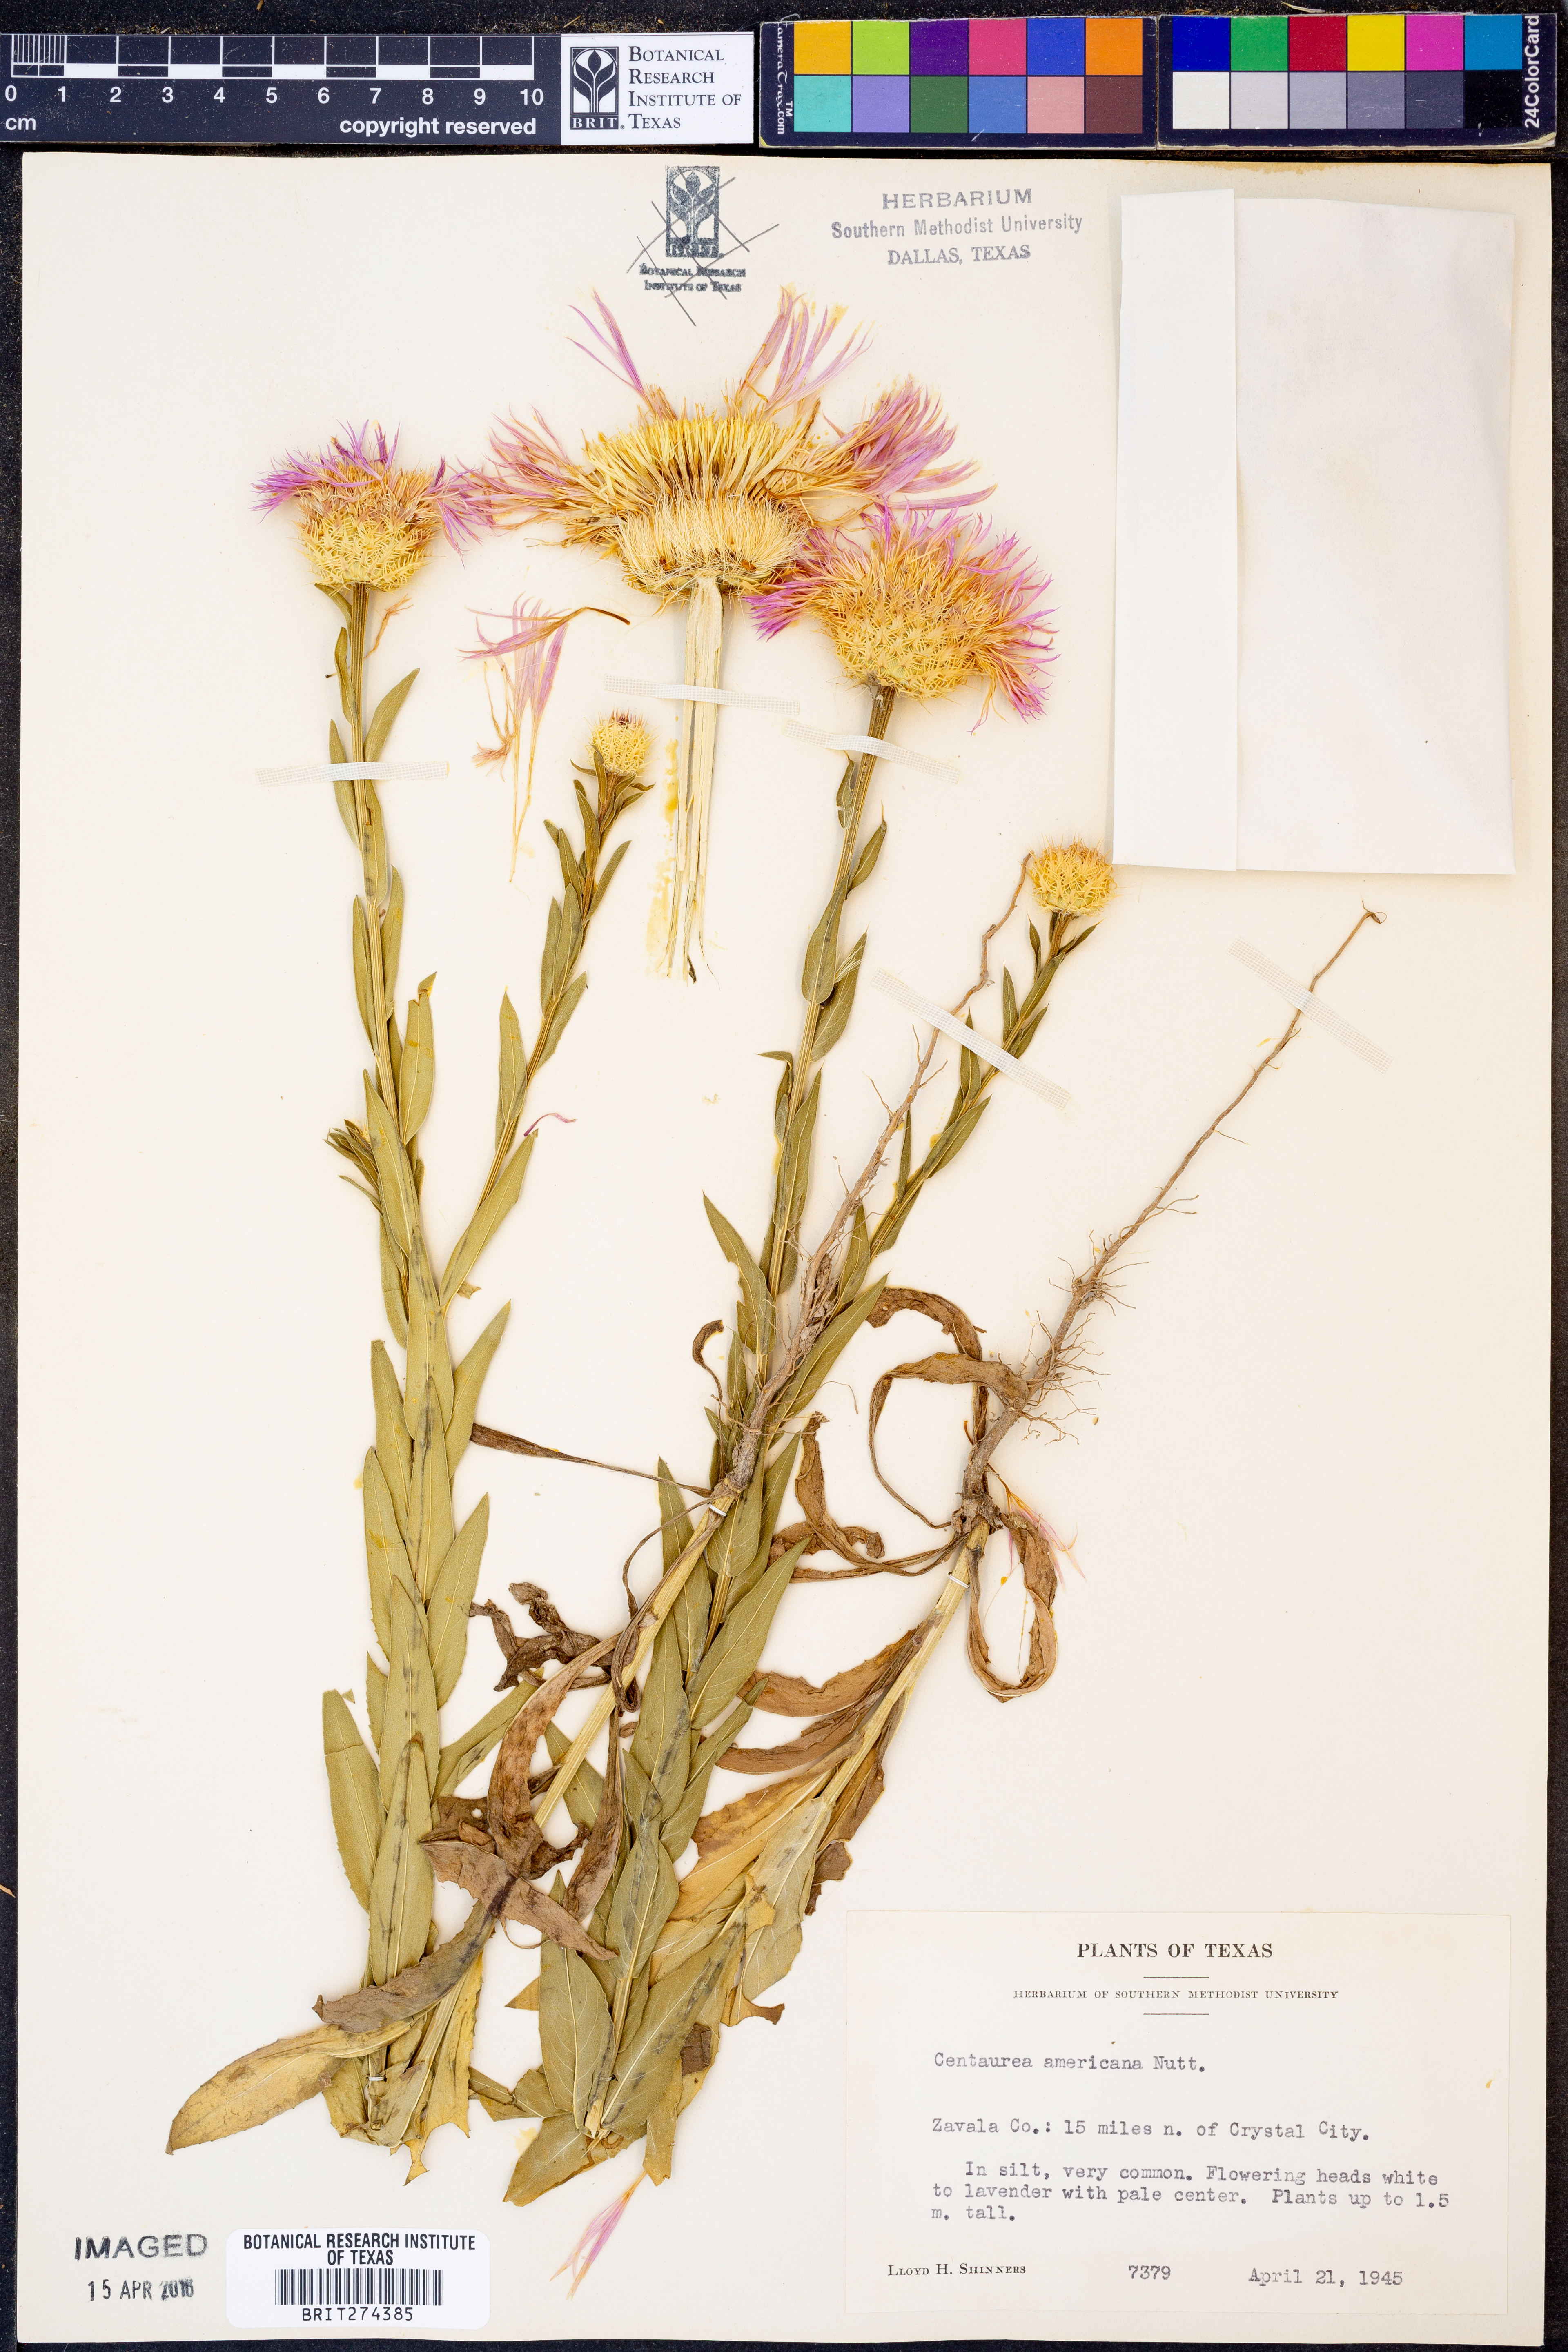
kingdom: Plantae
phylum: Tracheophyta
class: Magnoliopsida
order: Asterales
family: Asteraceae
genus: Plectocephalus
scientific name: Plectocephalus americanus
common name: American basket-flower
